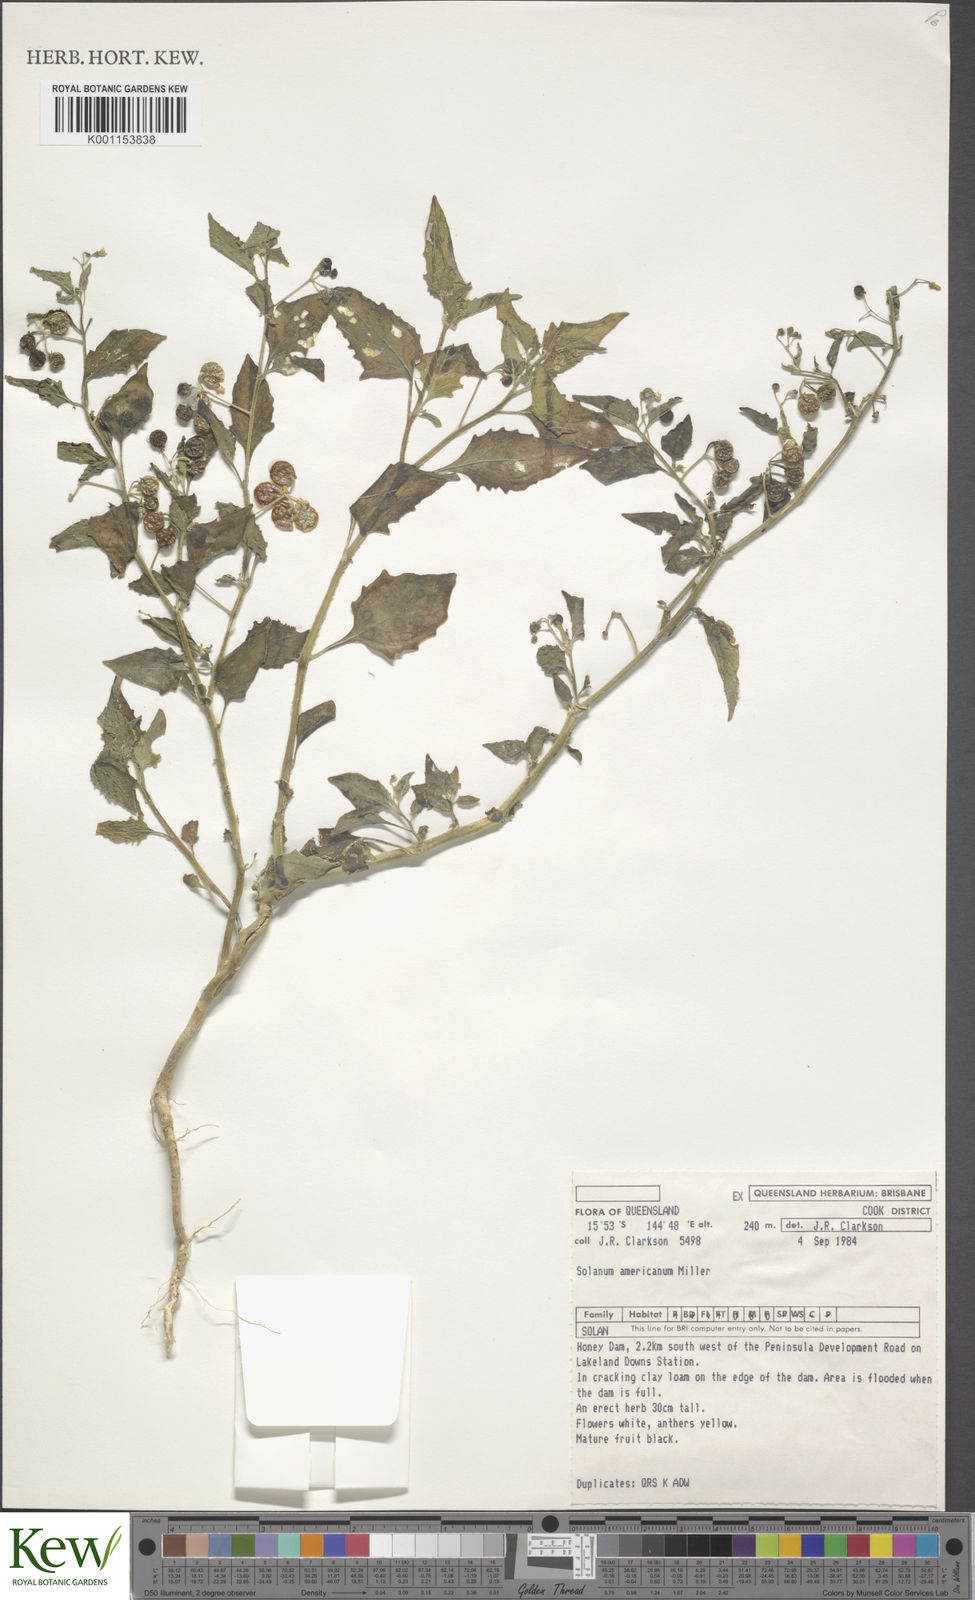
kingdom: Plantae
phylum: Tracheophyta
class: Magnoliopsida
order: Solanales
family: Solanaceae
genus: Solanum
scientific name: Solanum americanum
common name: American black nightshade
